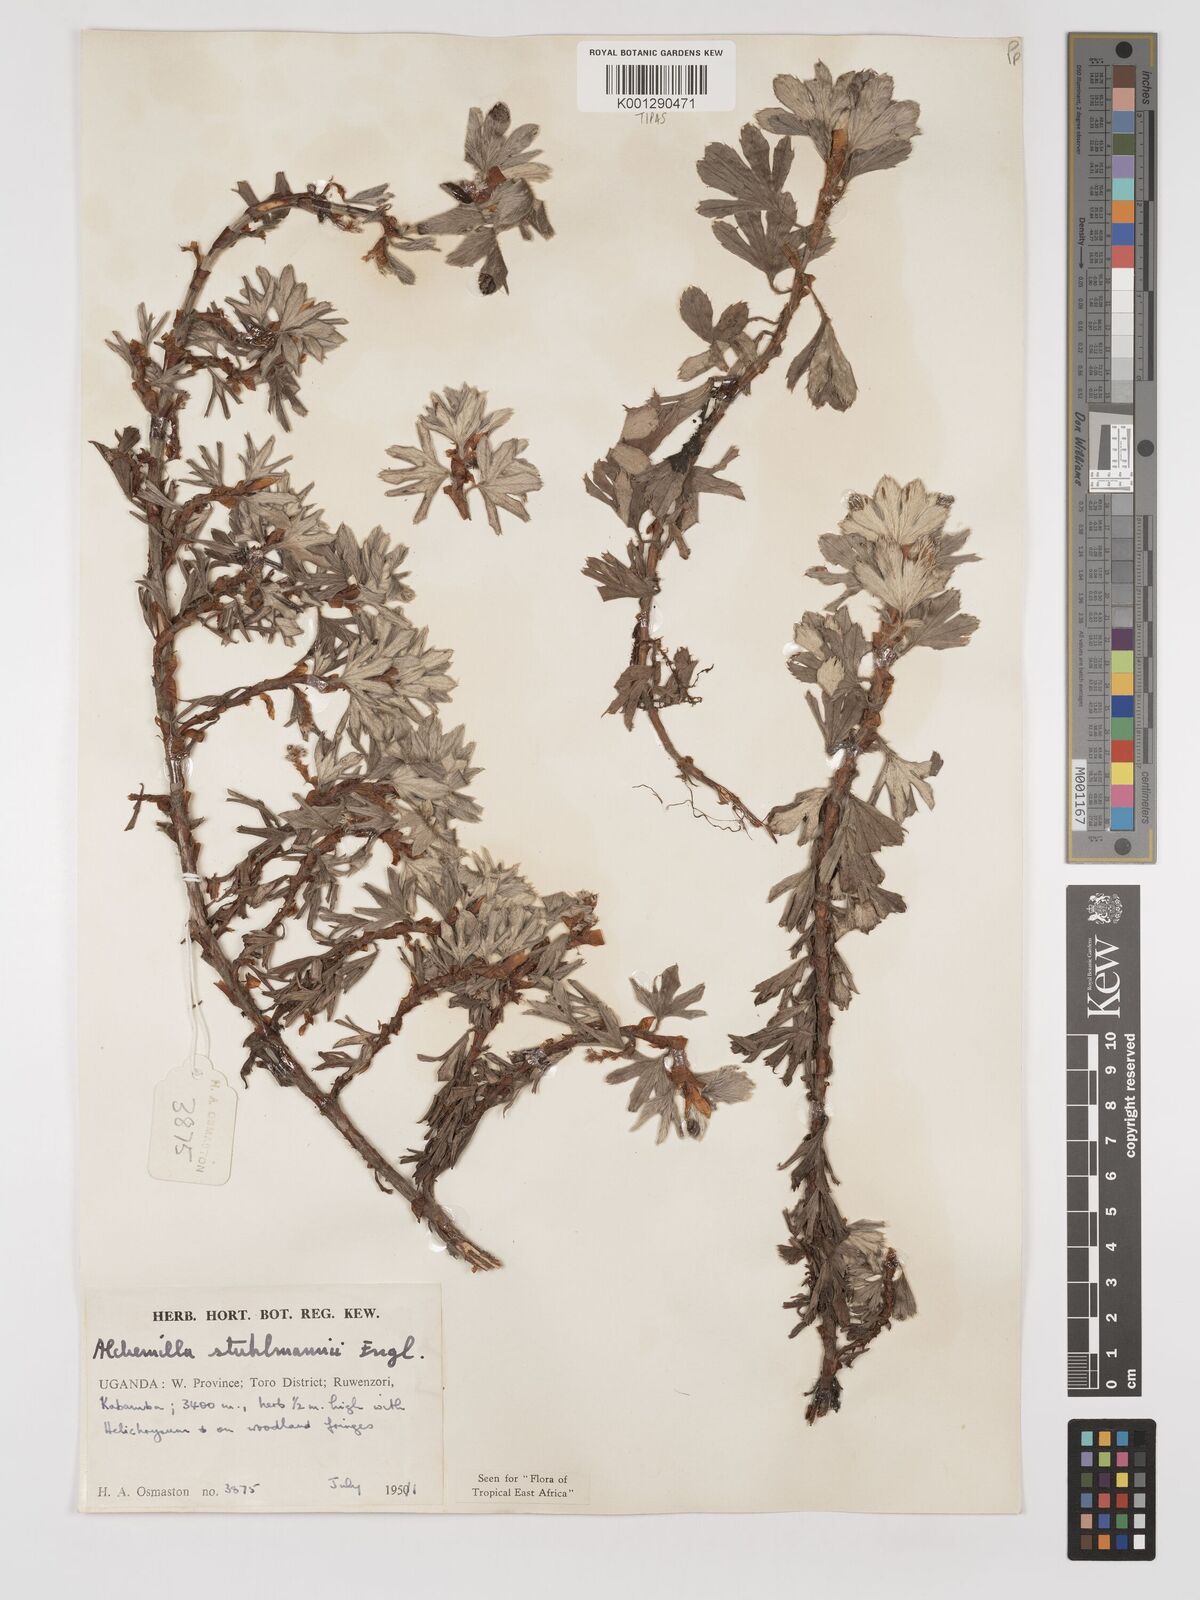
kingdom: Plantae
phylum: Tracheophyta
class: Magnoliopsida
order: Rosales
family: Rosaceae
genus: Alchemilla
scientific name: Alchemilla stuhlmannii
